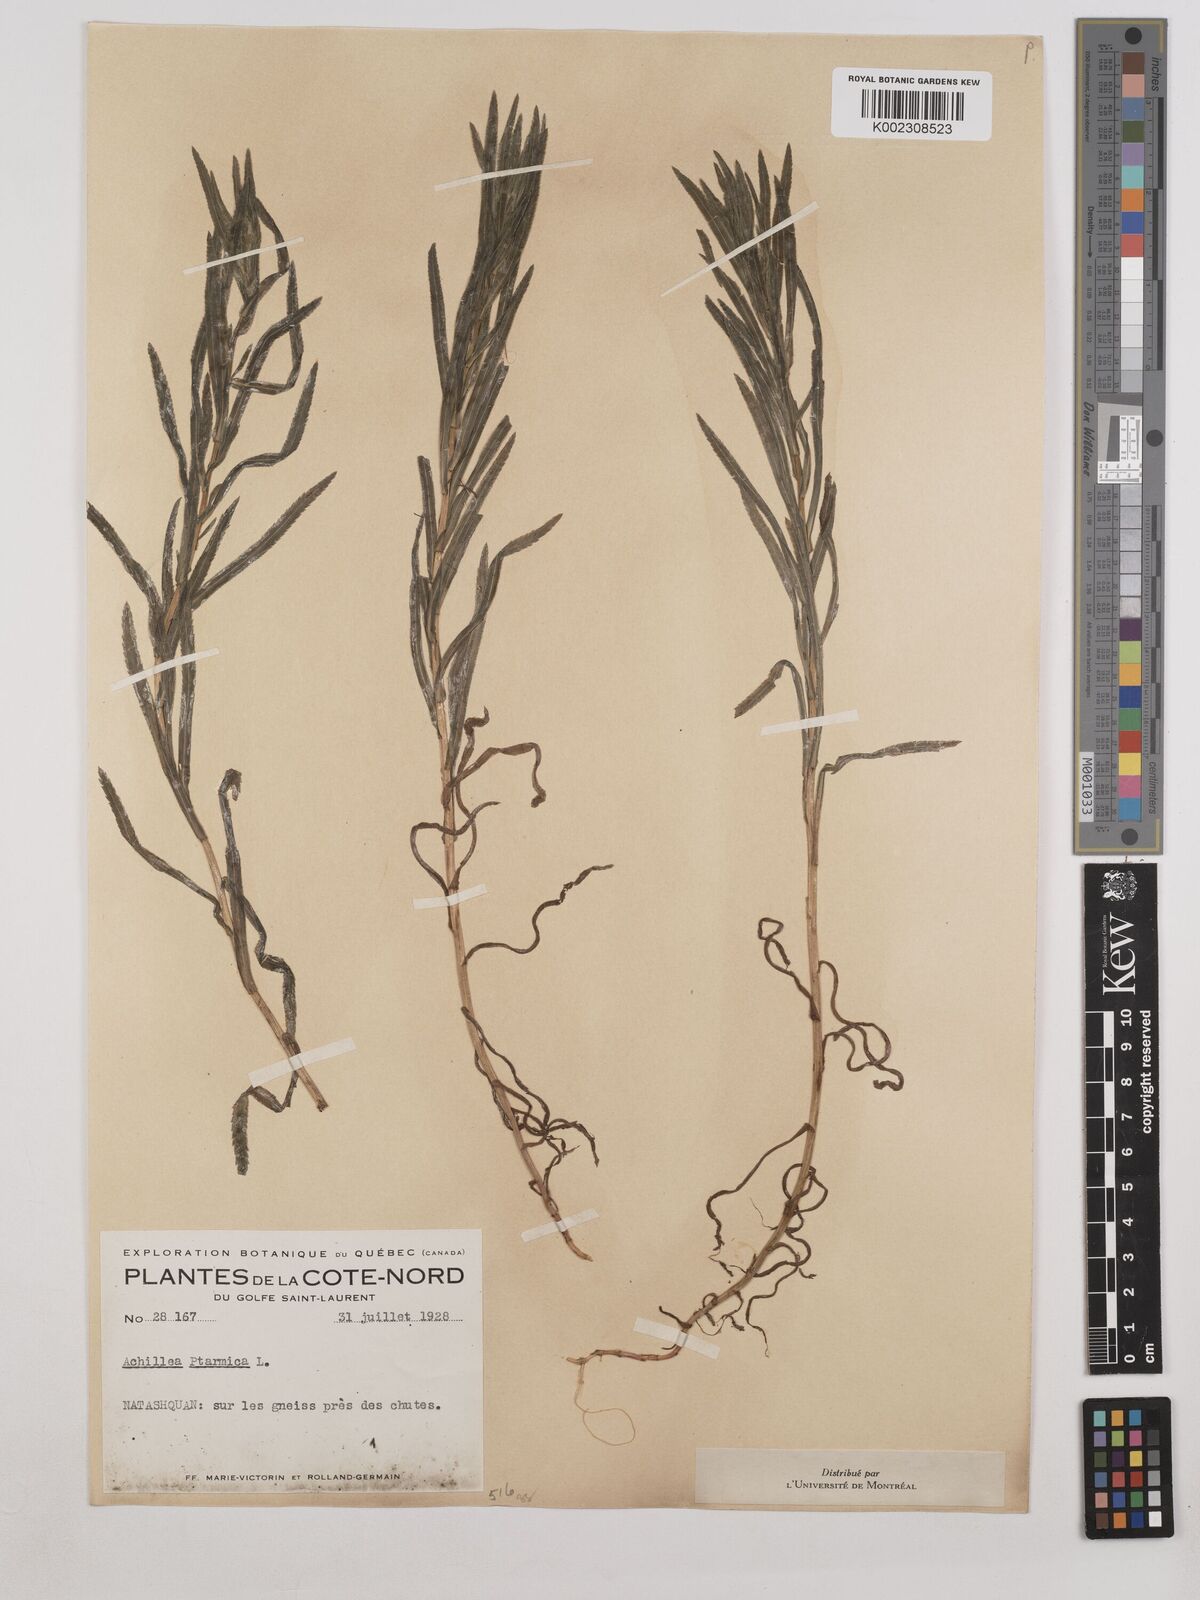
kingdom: Plantae
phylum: Tracheophyta
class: Magnoliopsida
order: Asterales
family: Asteraceae
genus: Achillea
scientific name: Achillea ptarmica
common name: Sneezeweed
